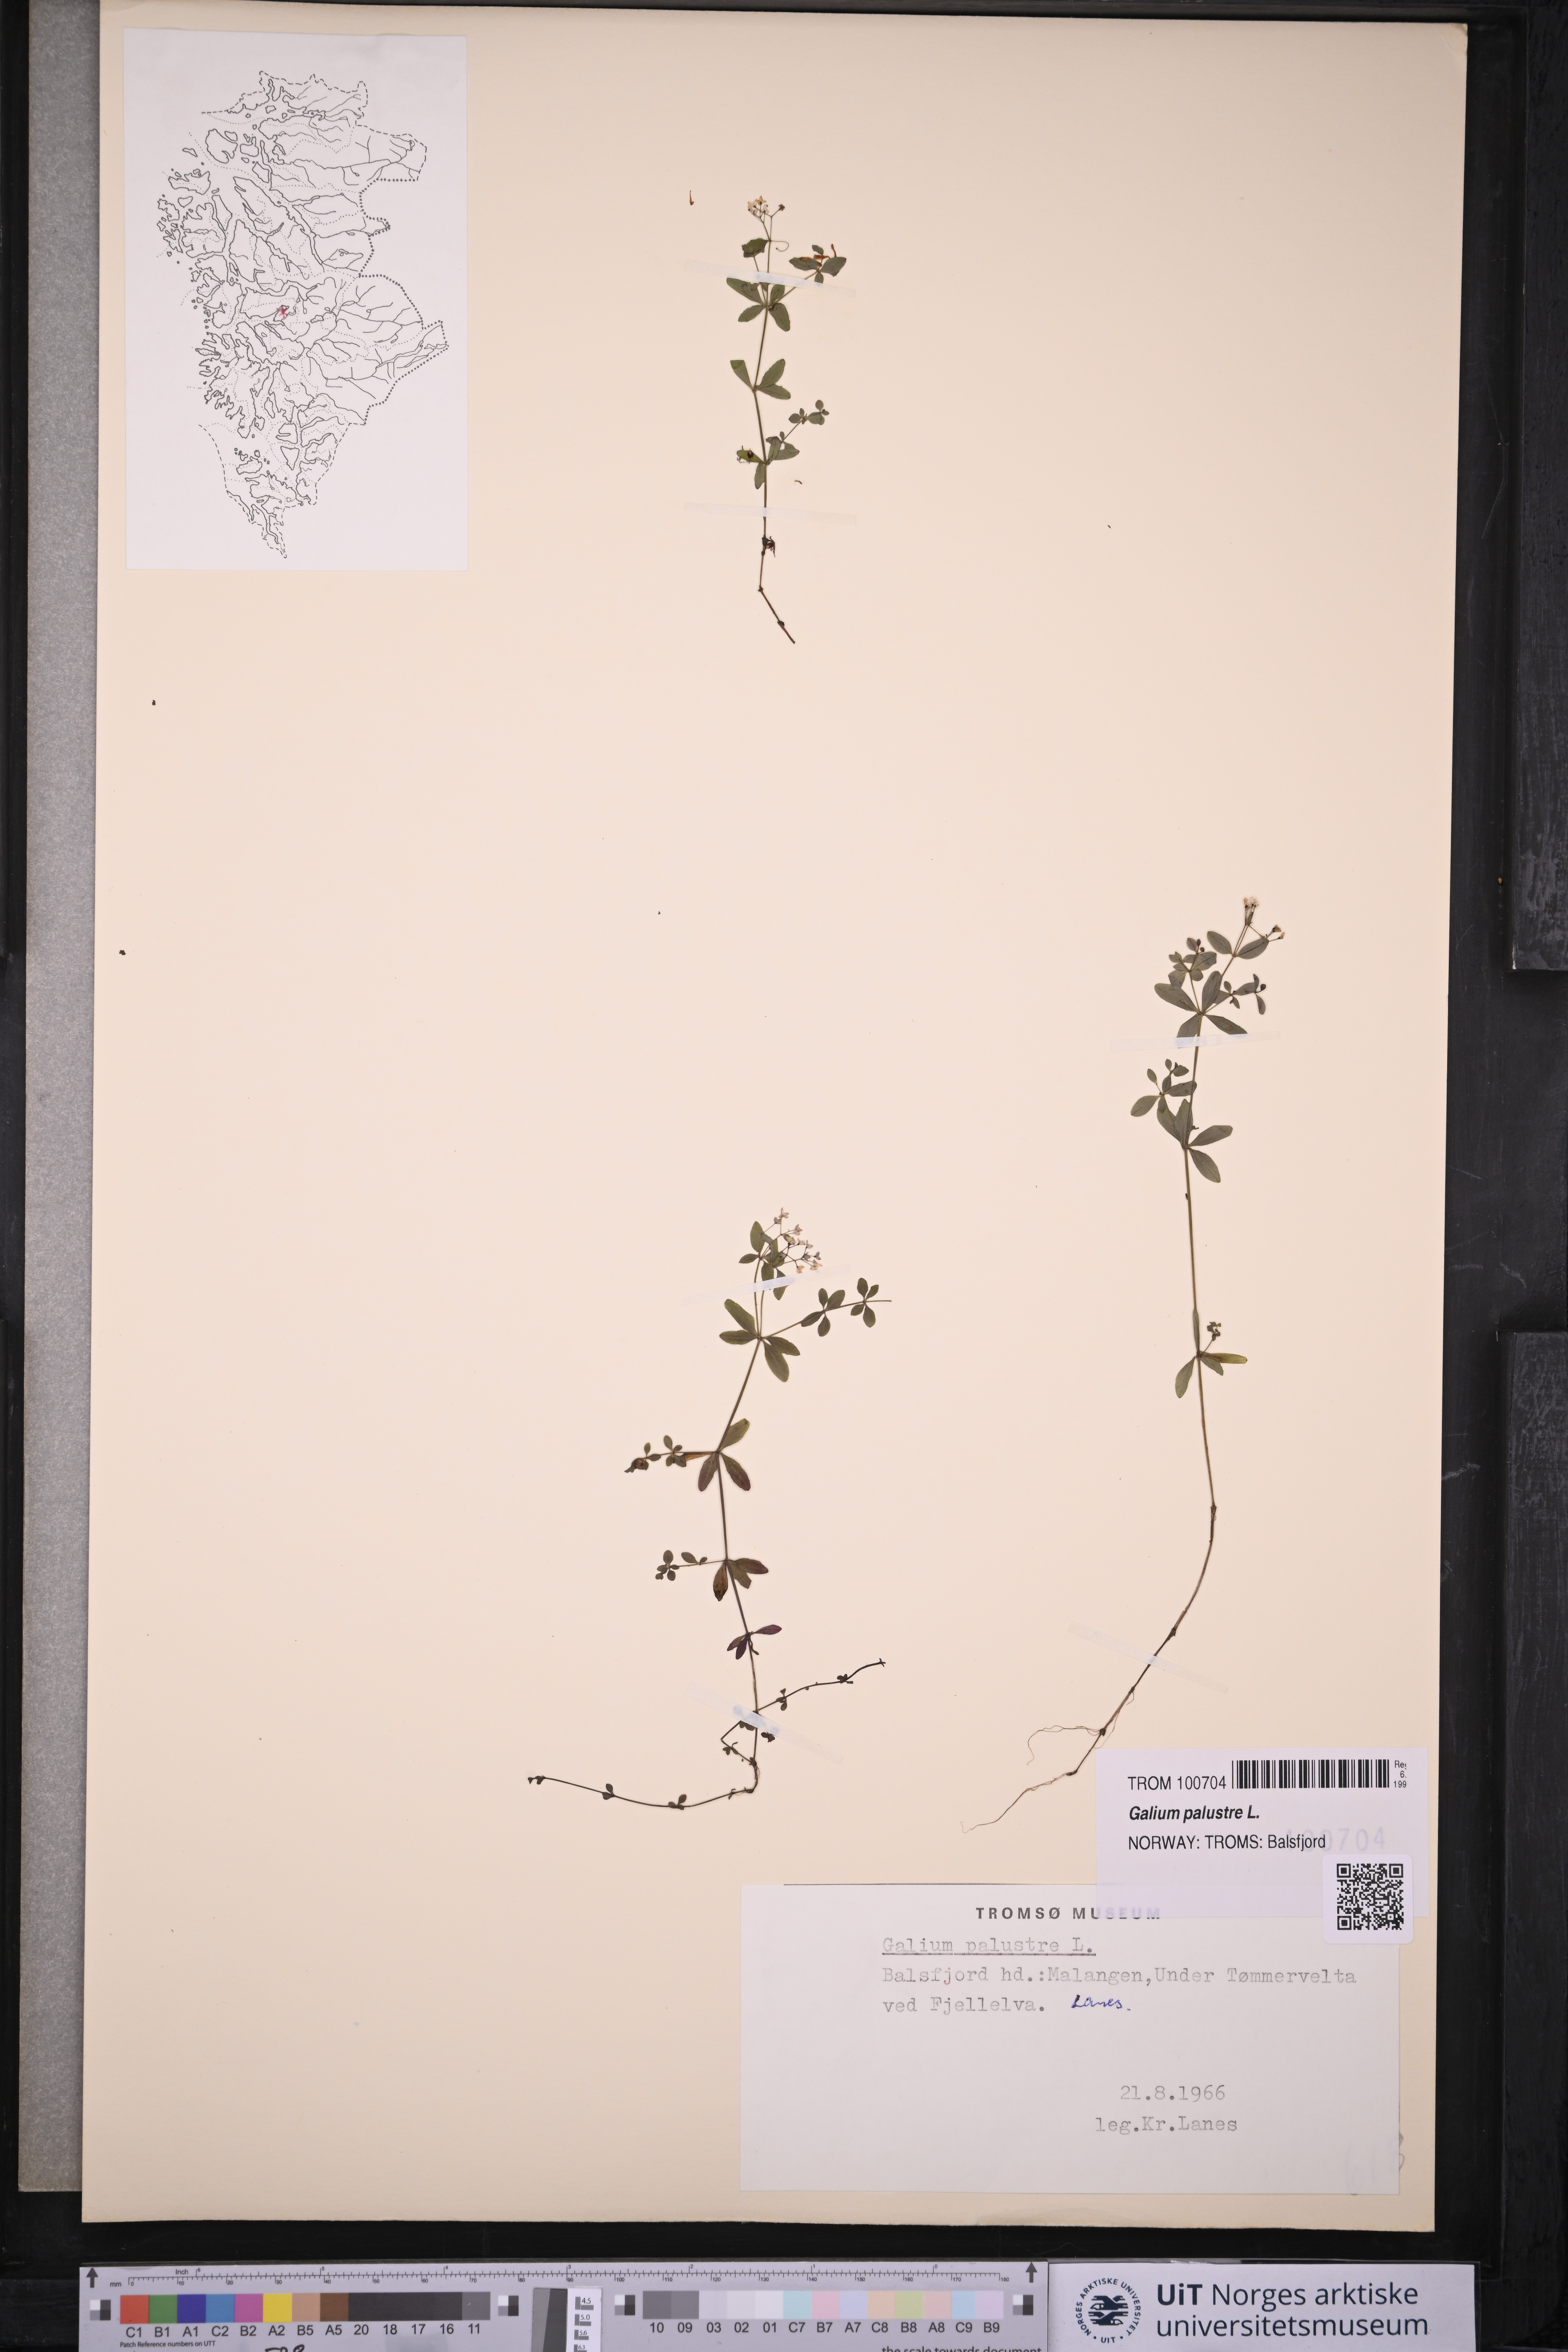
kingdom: Plantae
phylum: Tracheophyta
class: Magnoliopsida
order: Gentianales
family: Rubiaceae
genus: Galium
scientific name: Galium palustre
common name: Common marsh-bedstraw
